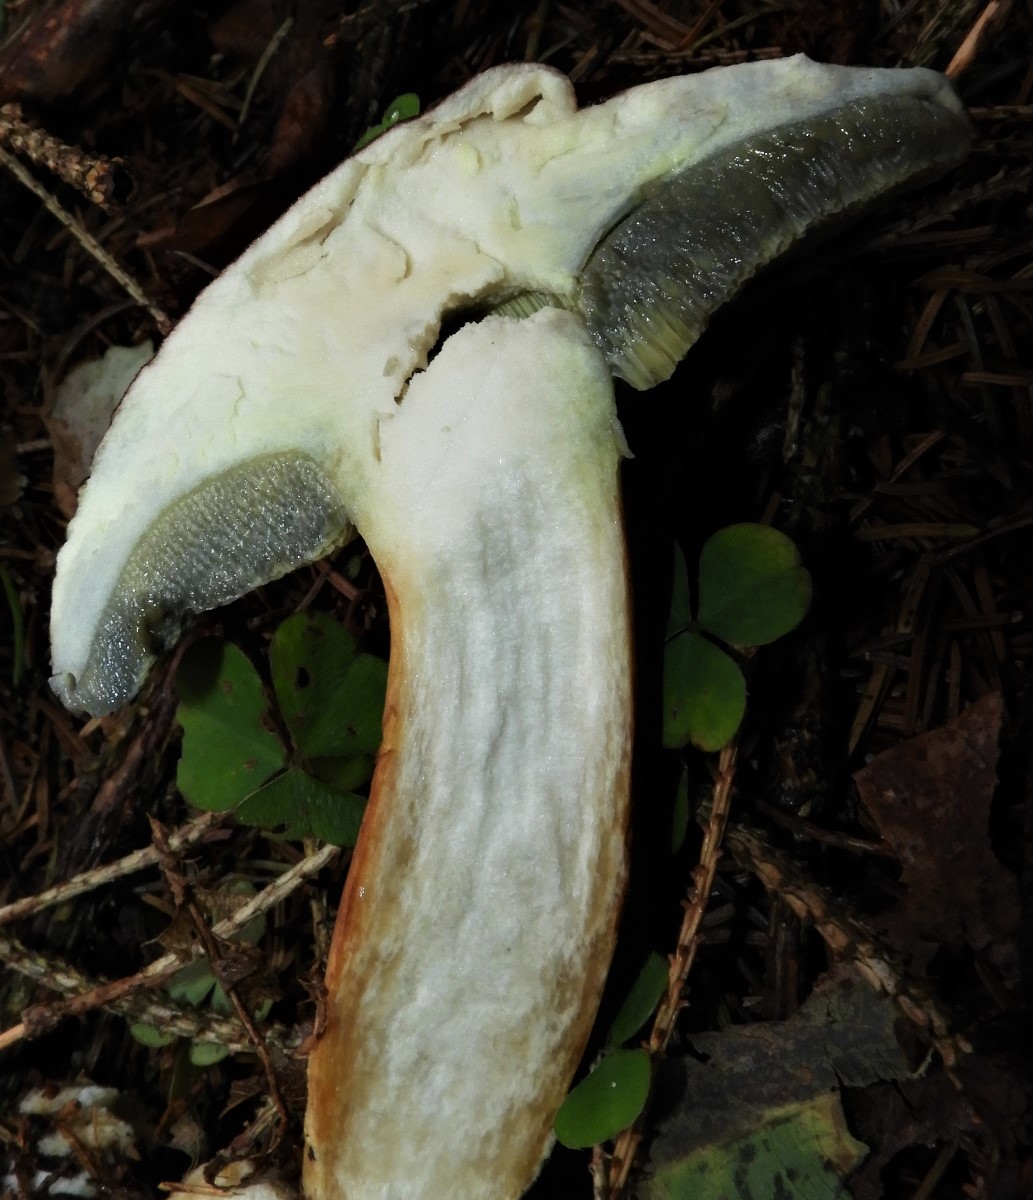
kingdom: Fungi
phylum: Basidiomycota
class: Agaricomycetes
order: Boletales
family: Boletaceae
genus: Imleria
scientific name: Imleria badia
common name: brunstokket rørhat
